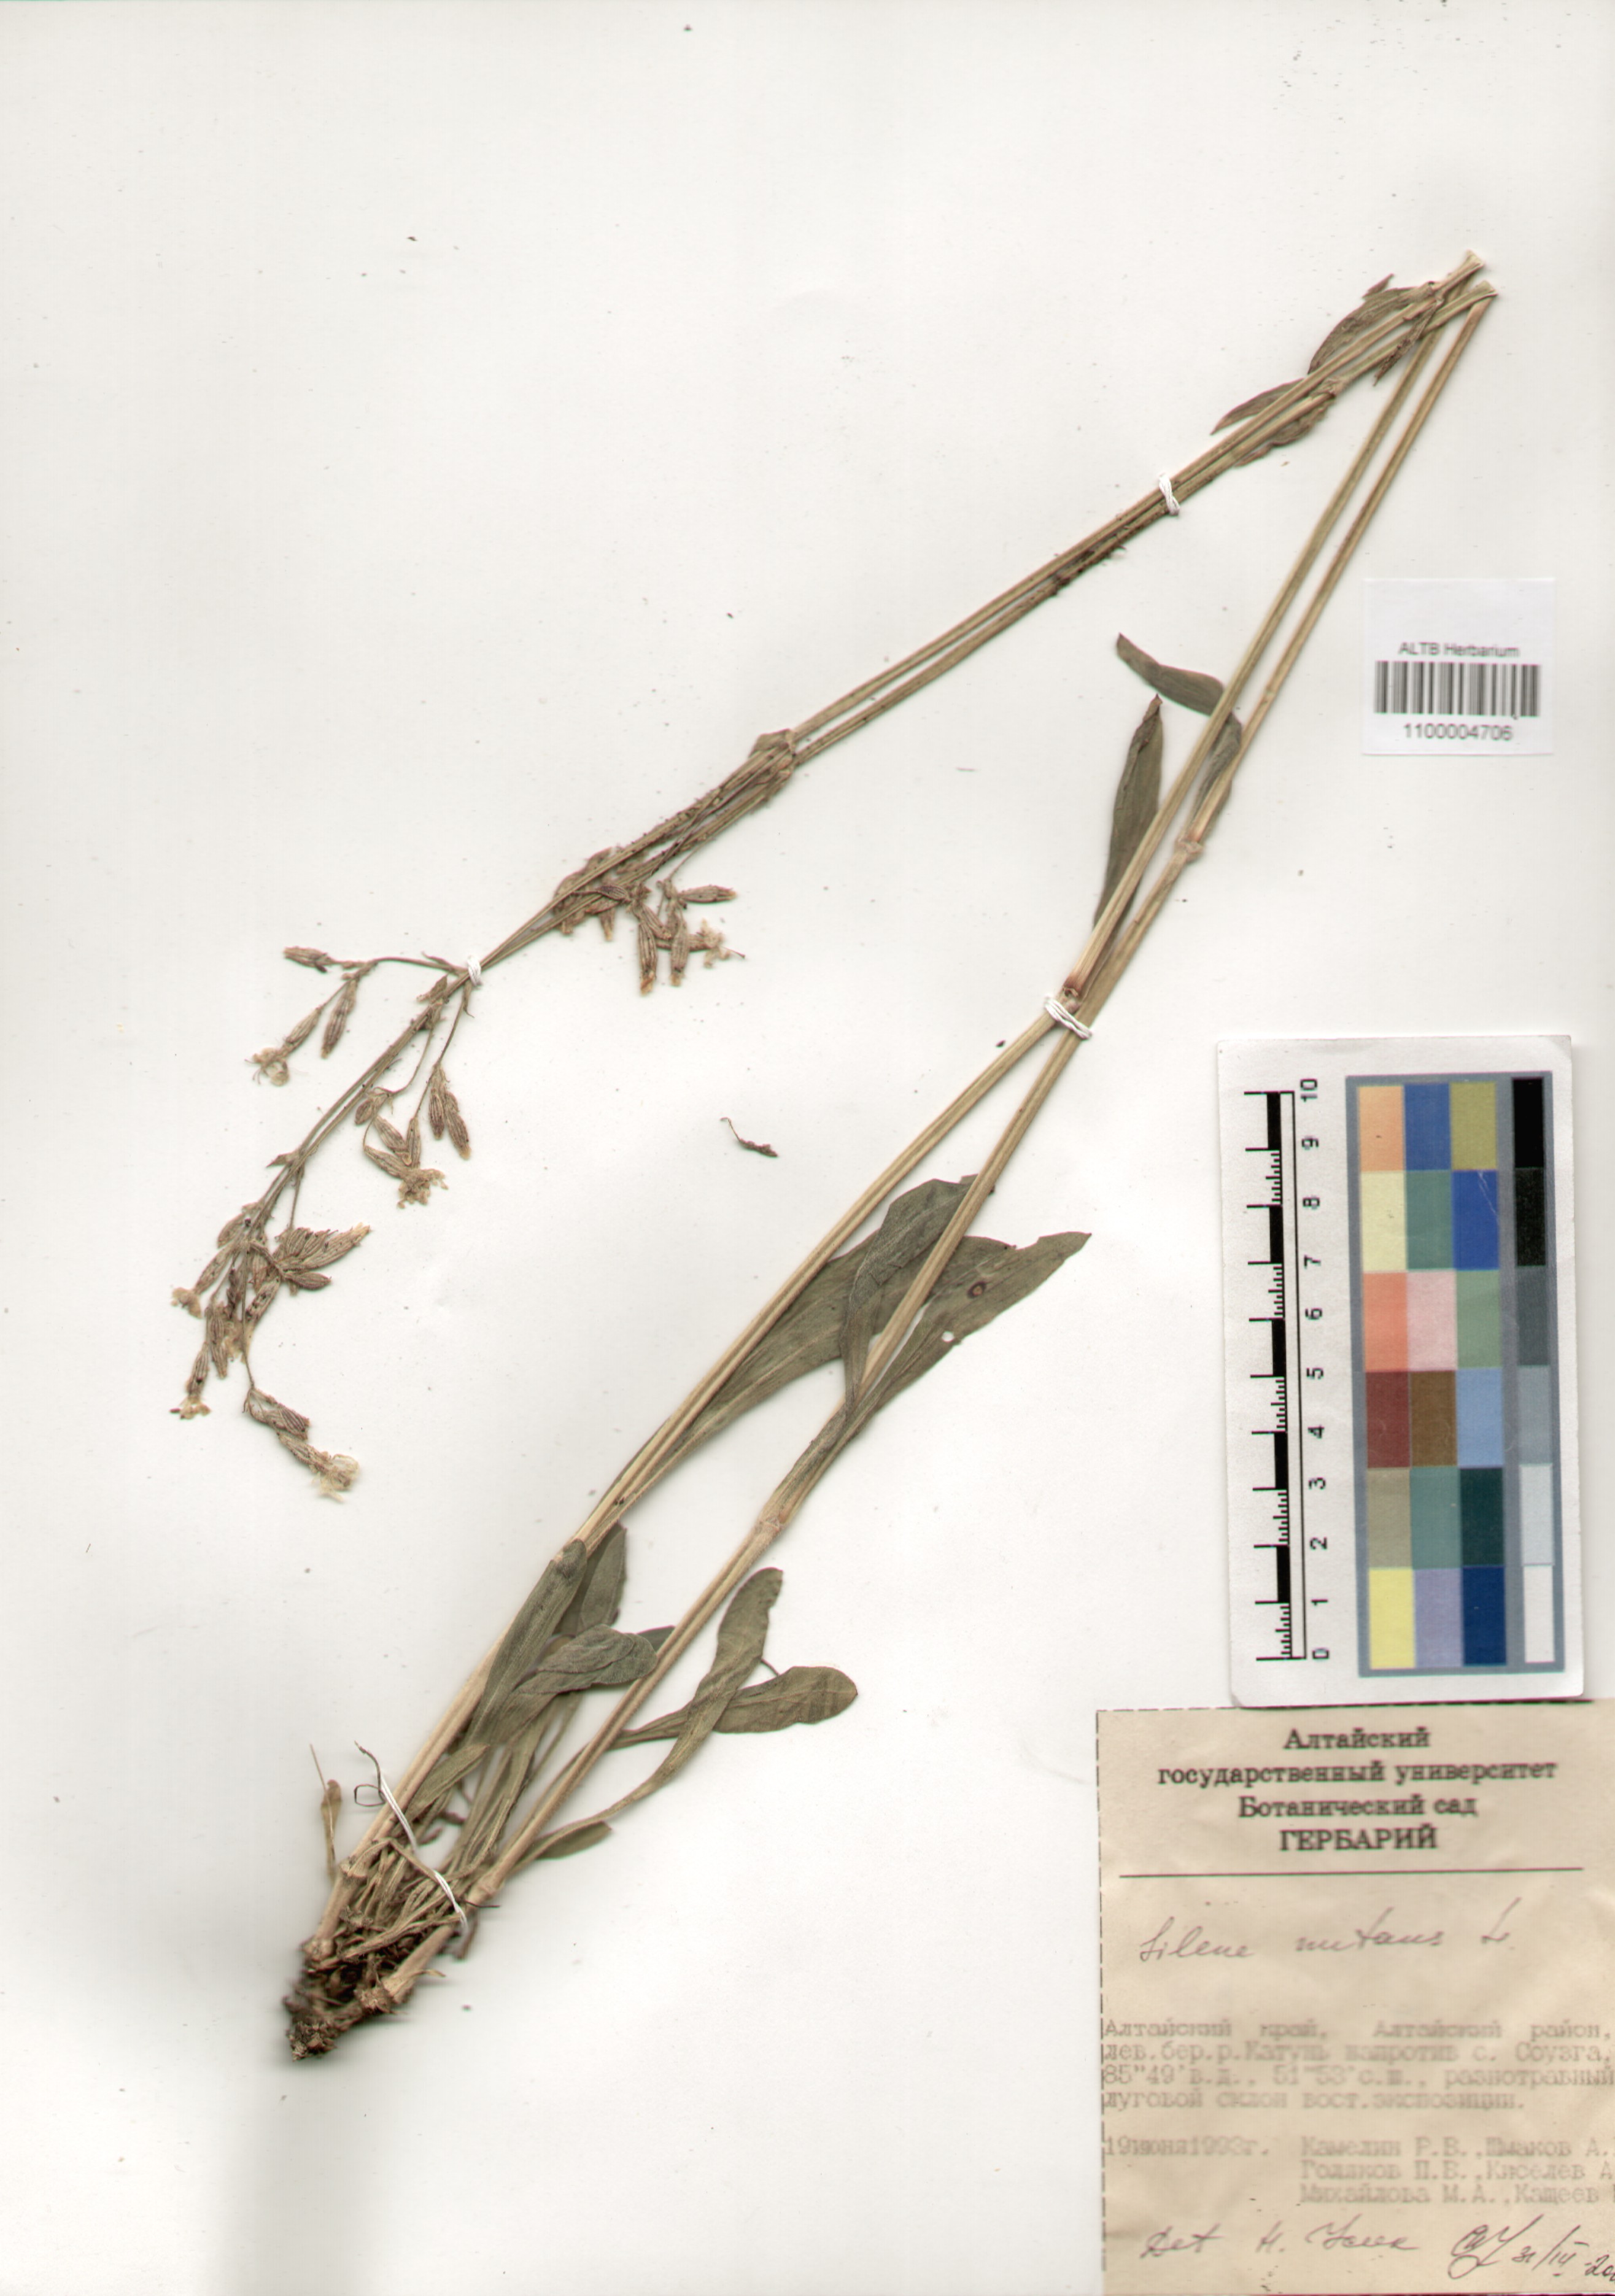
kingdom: Plantae
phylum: Tracheophyta
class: Magnoliopsida
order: Caryophyllales
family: Caryophyllaceae
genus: Silene
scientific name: Silene nutans
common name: Nottingham catchfly
